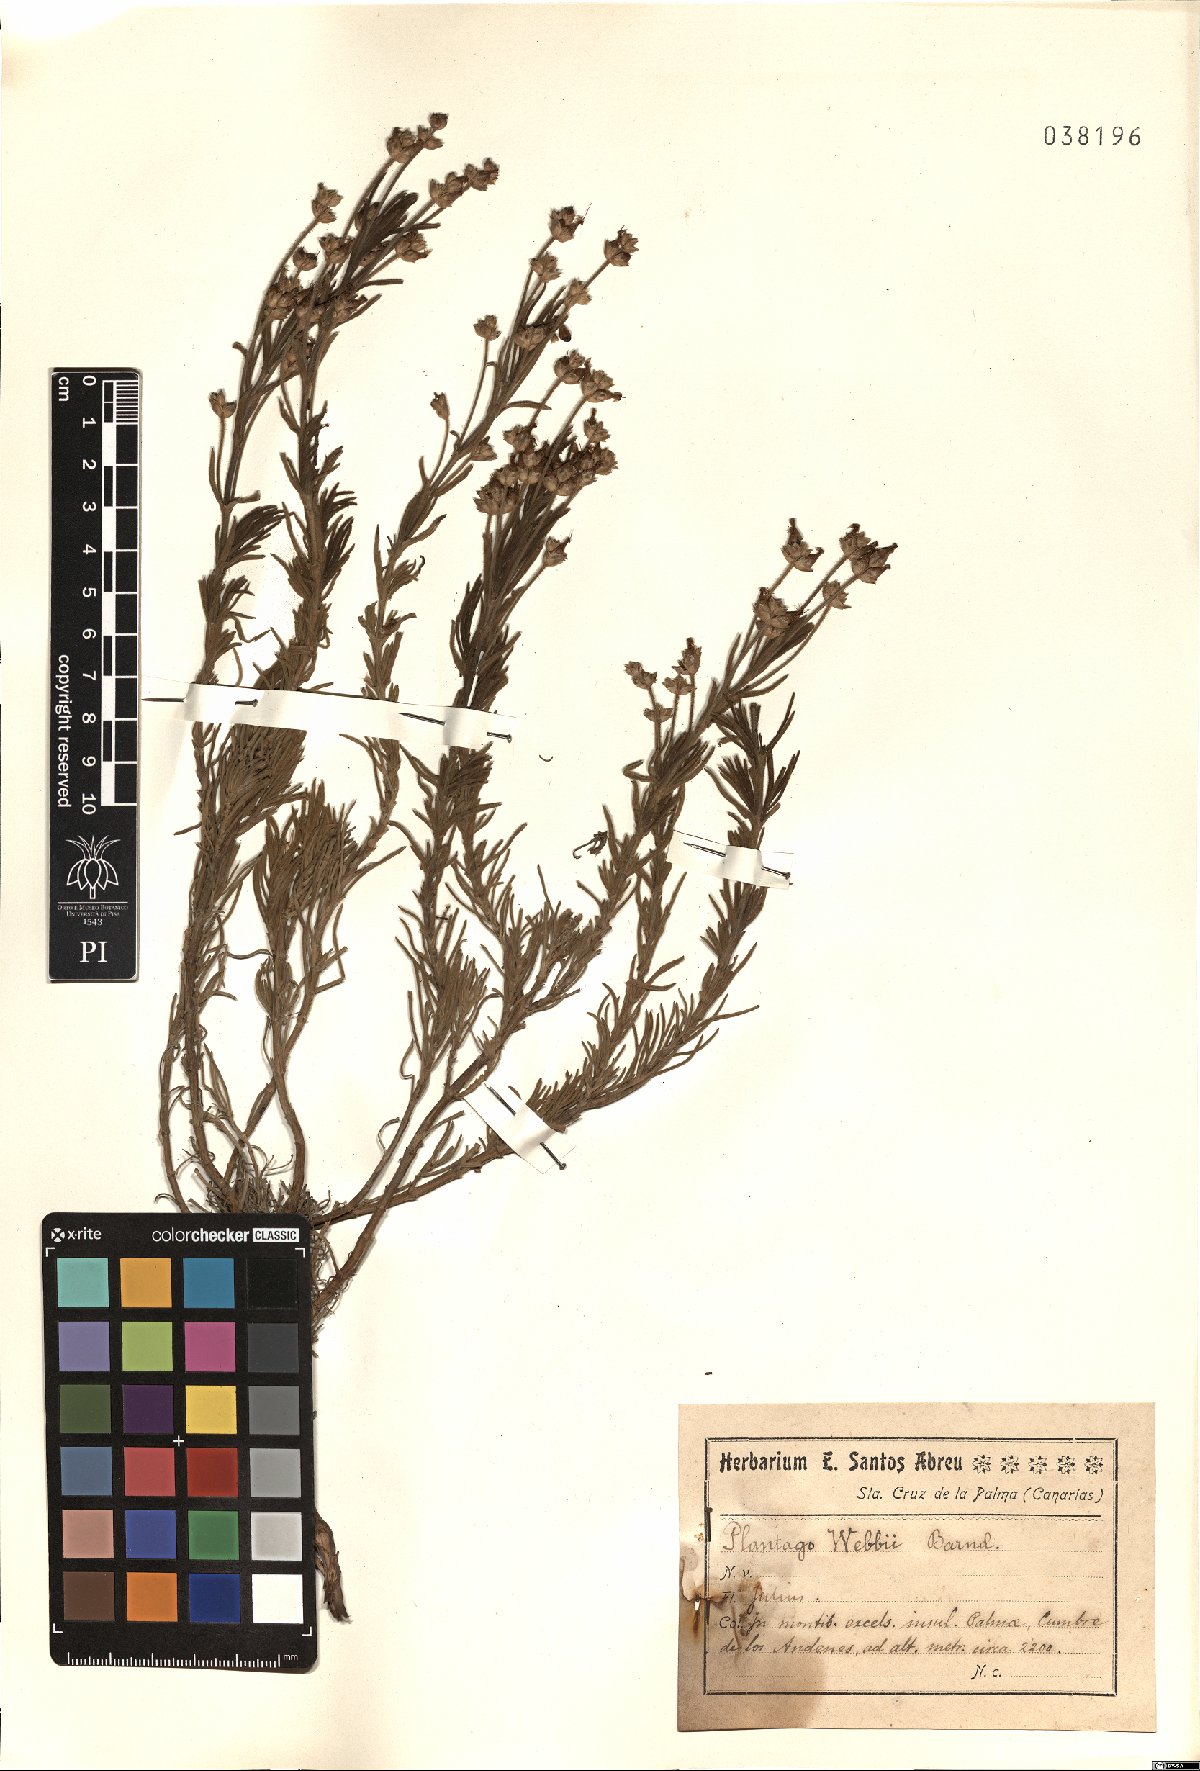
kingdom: Plantae
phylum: Tracheophyta
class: Magnoliopsida
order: Lamiales
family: Plantaginaceae
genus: Plantago
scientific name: Plantago webbii
